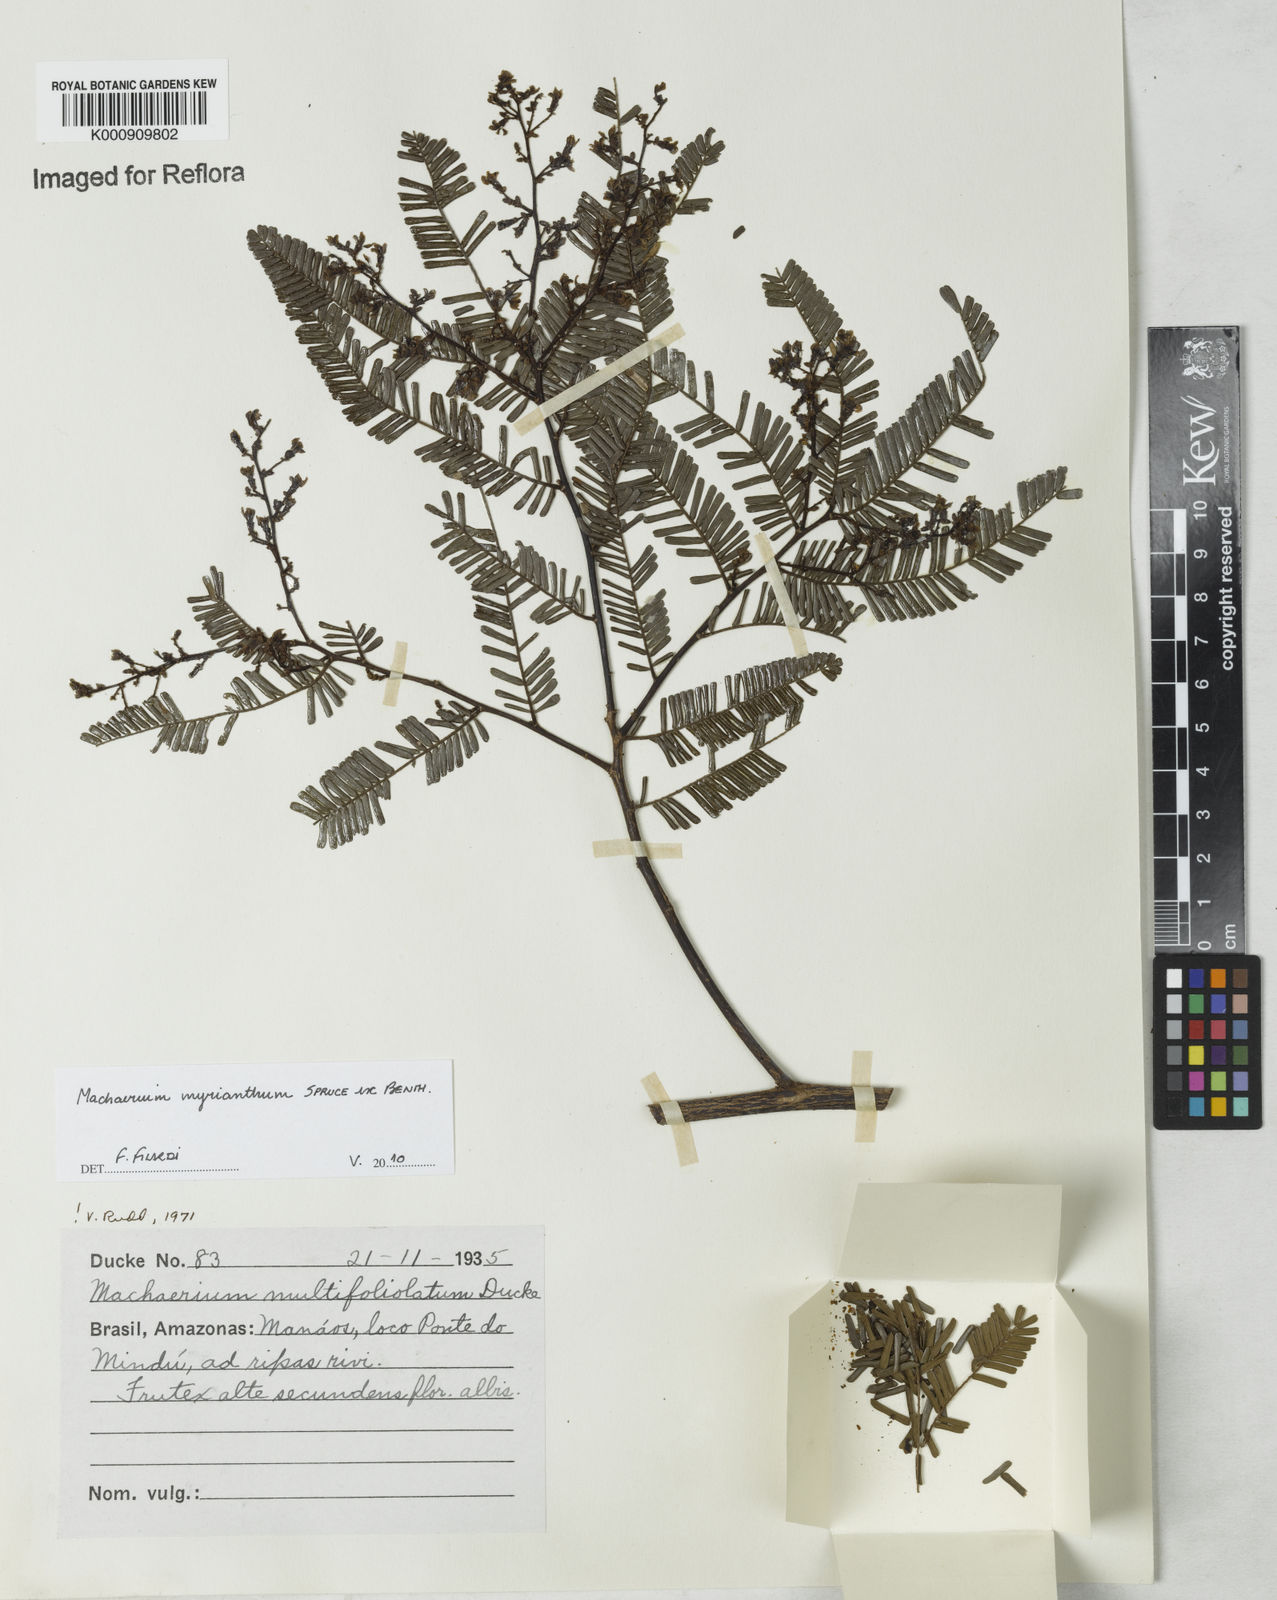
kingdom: Plantae
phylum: Tracheophyta
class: Magnoliopsida
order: Fabales
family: Fabaceae
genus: Machaerium
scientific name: Machaerium multifoliolatum
